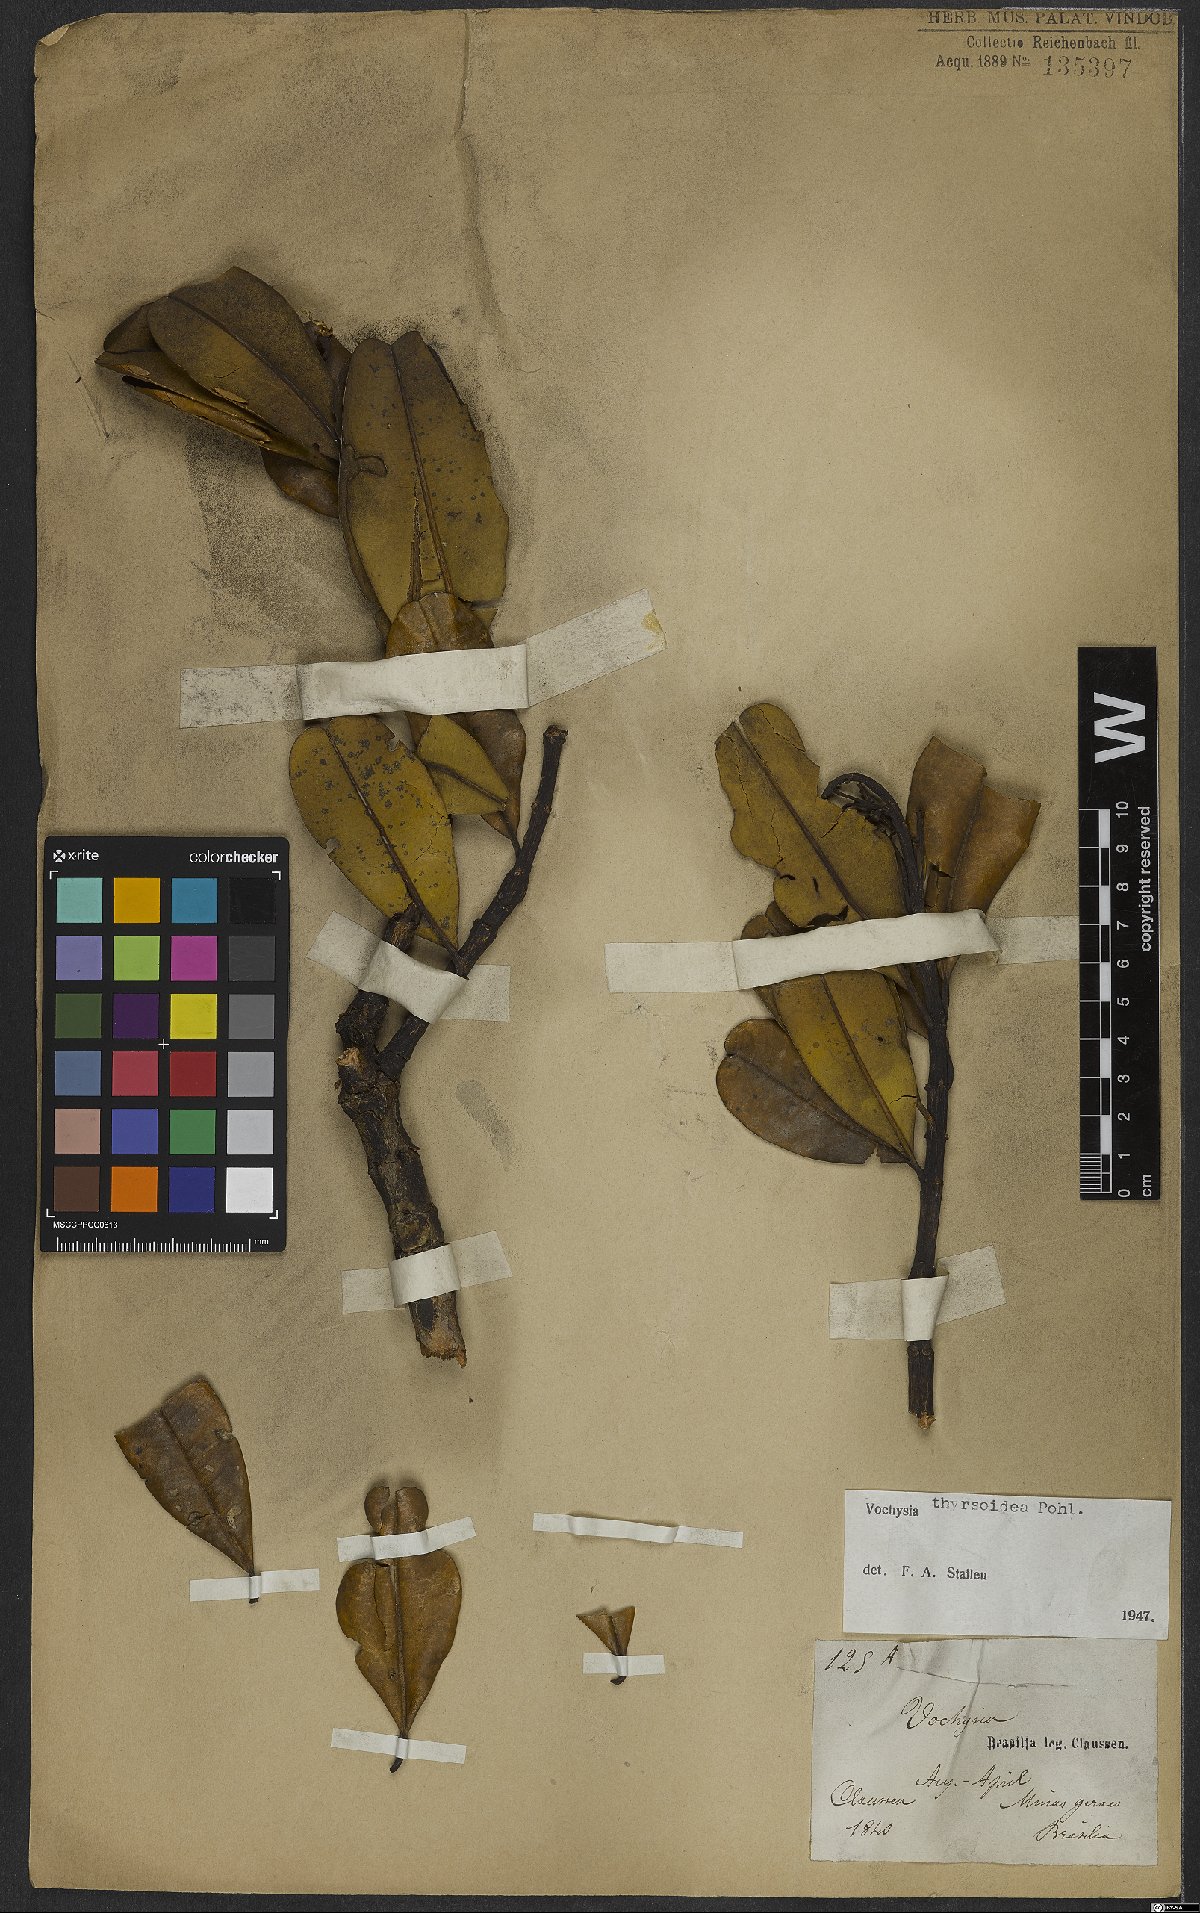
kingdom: Plantae
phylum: Tracheophyta
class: Magnoliopsida
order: Myrtales
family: Vochysiaceae
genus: Vochysia
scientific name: Vochysia thyrsoidea
